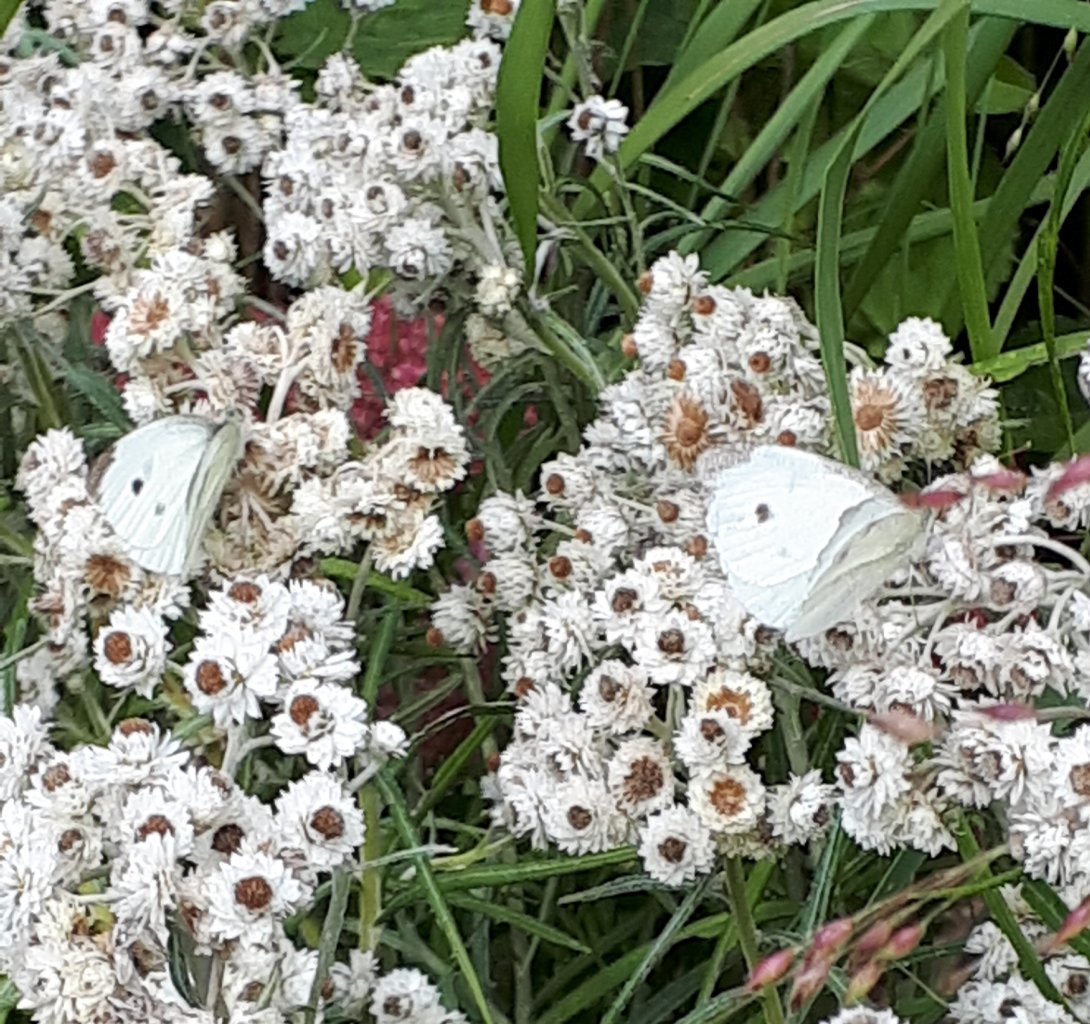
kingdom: Animalia
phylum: Arthropoda
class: Insecta
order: Lepidoptera
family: Pieridae
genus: Pieris
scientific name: Pieris rapae
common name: Cabbage White
